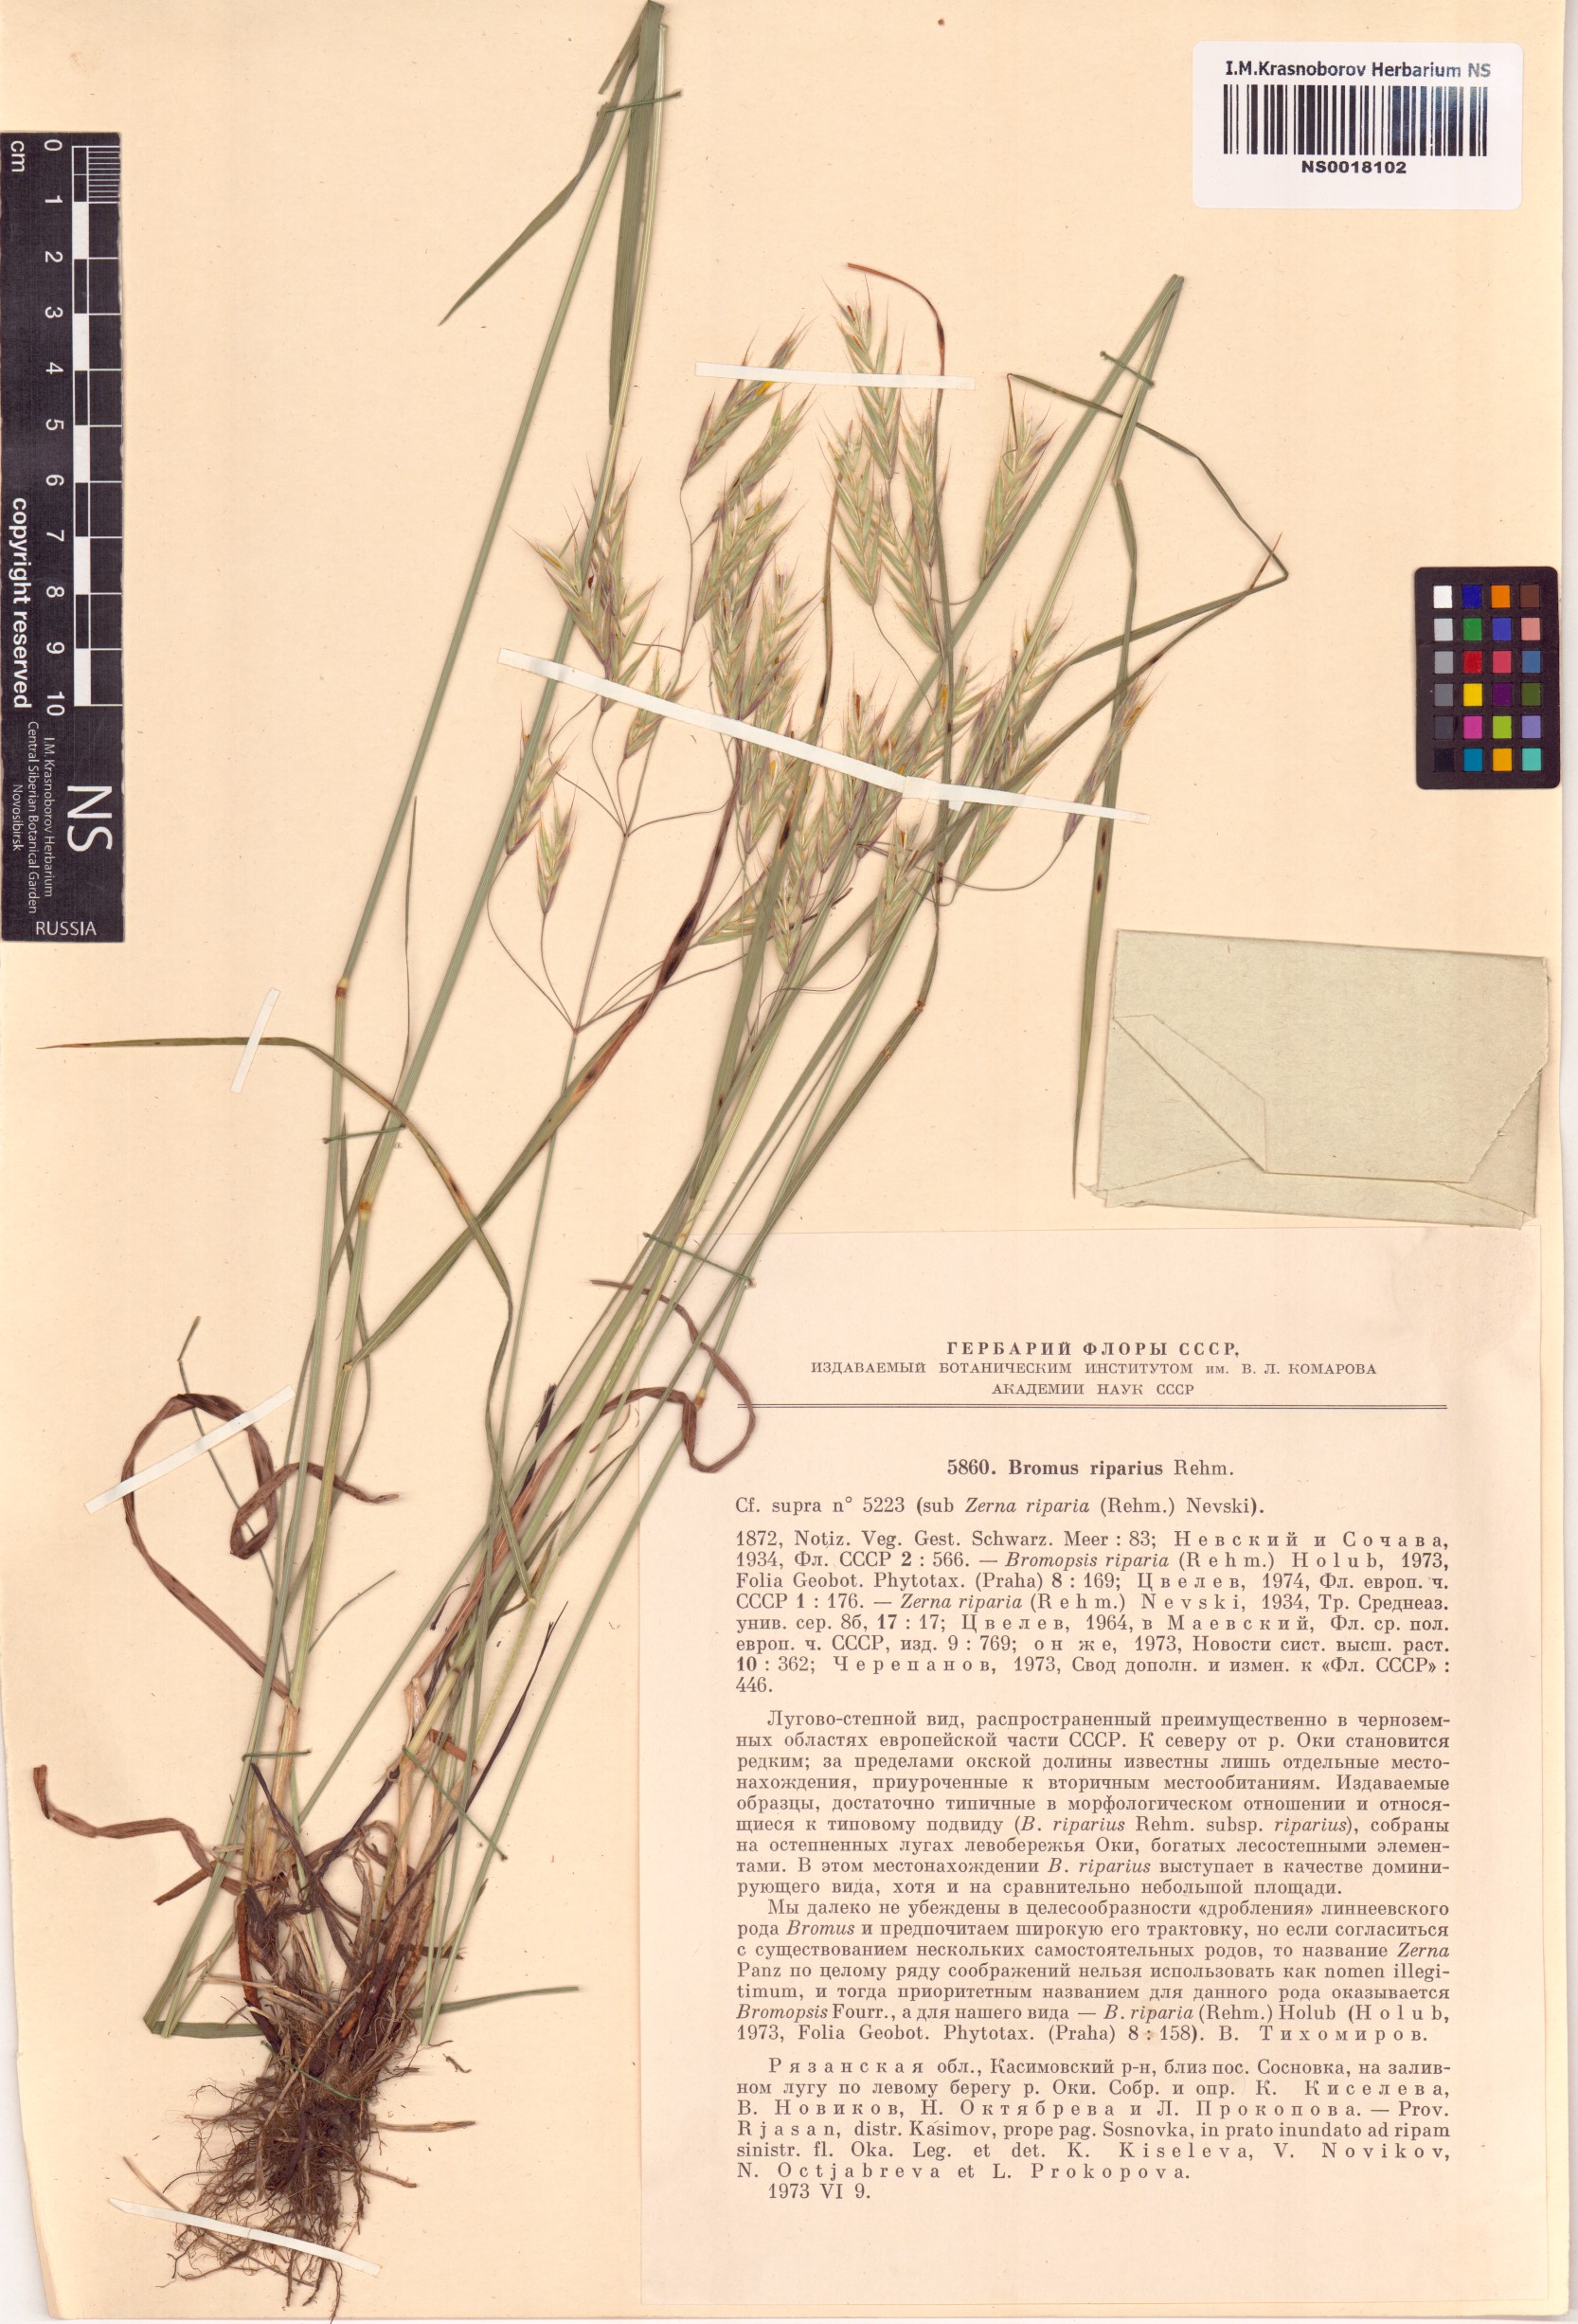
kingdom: Plantae
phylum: Tracheophyta
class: Liliopsida
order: Poales
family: Poaceae
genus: Bromus
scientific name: Bromus riparius
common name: Meadow brome
